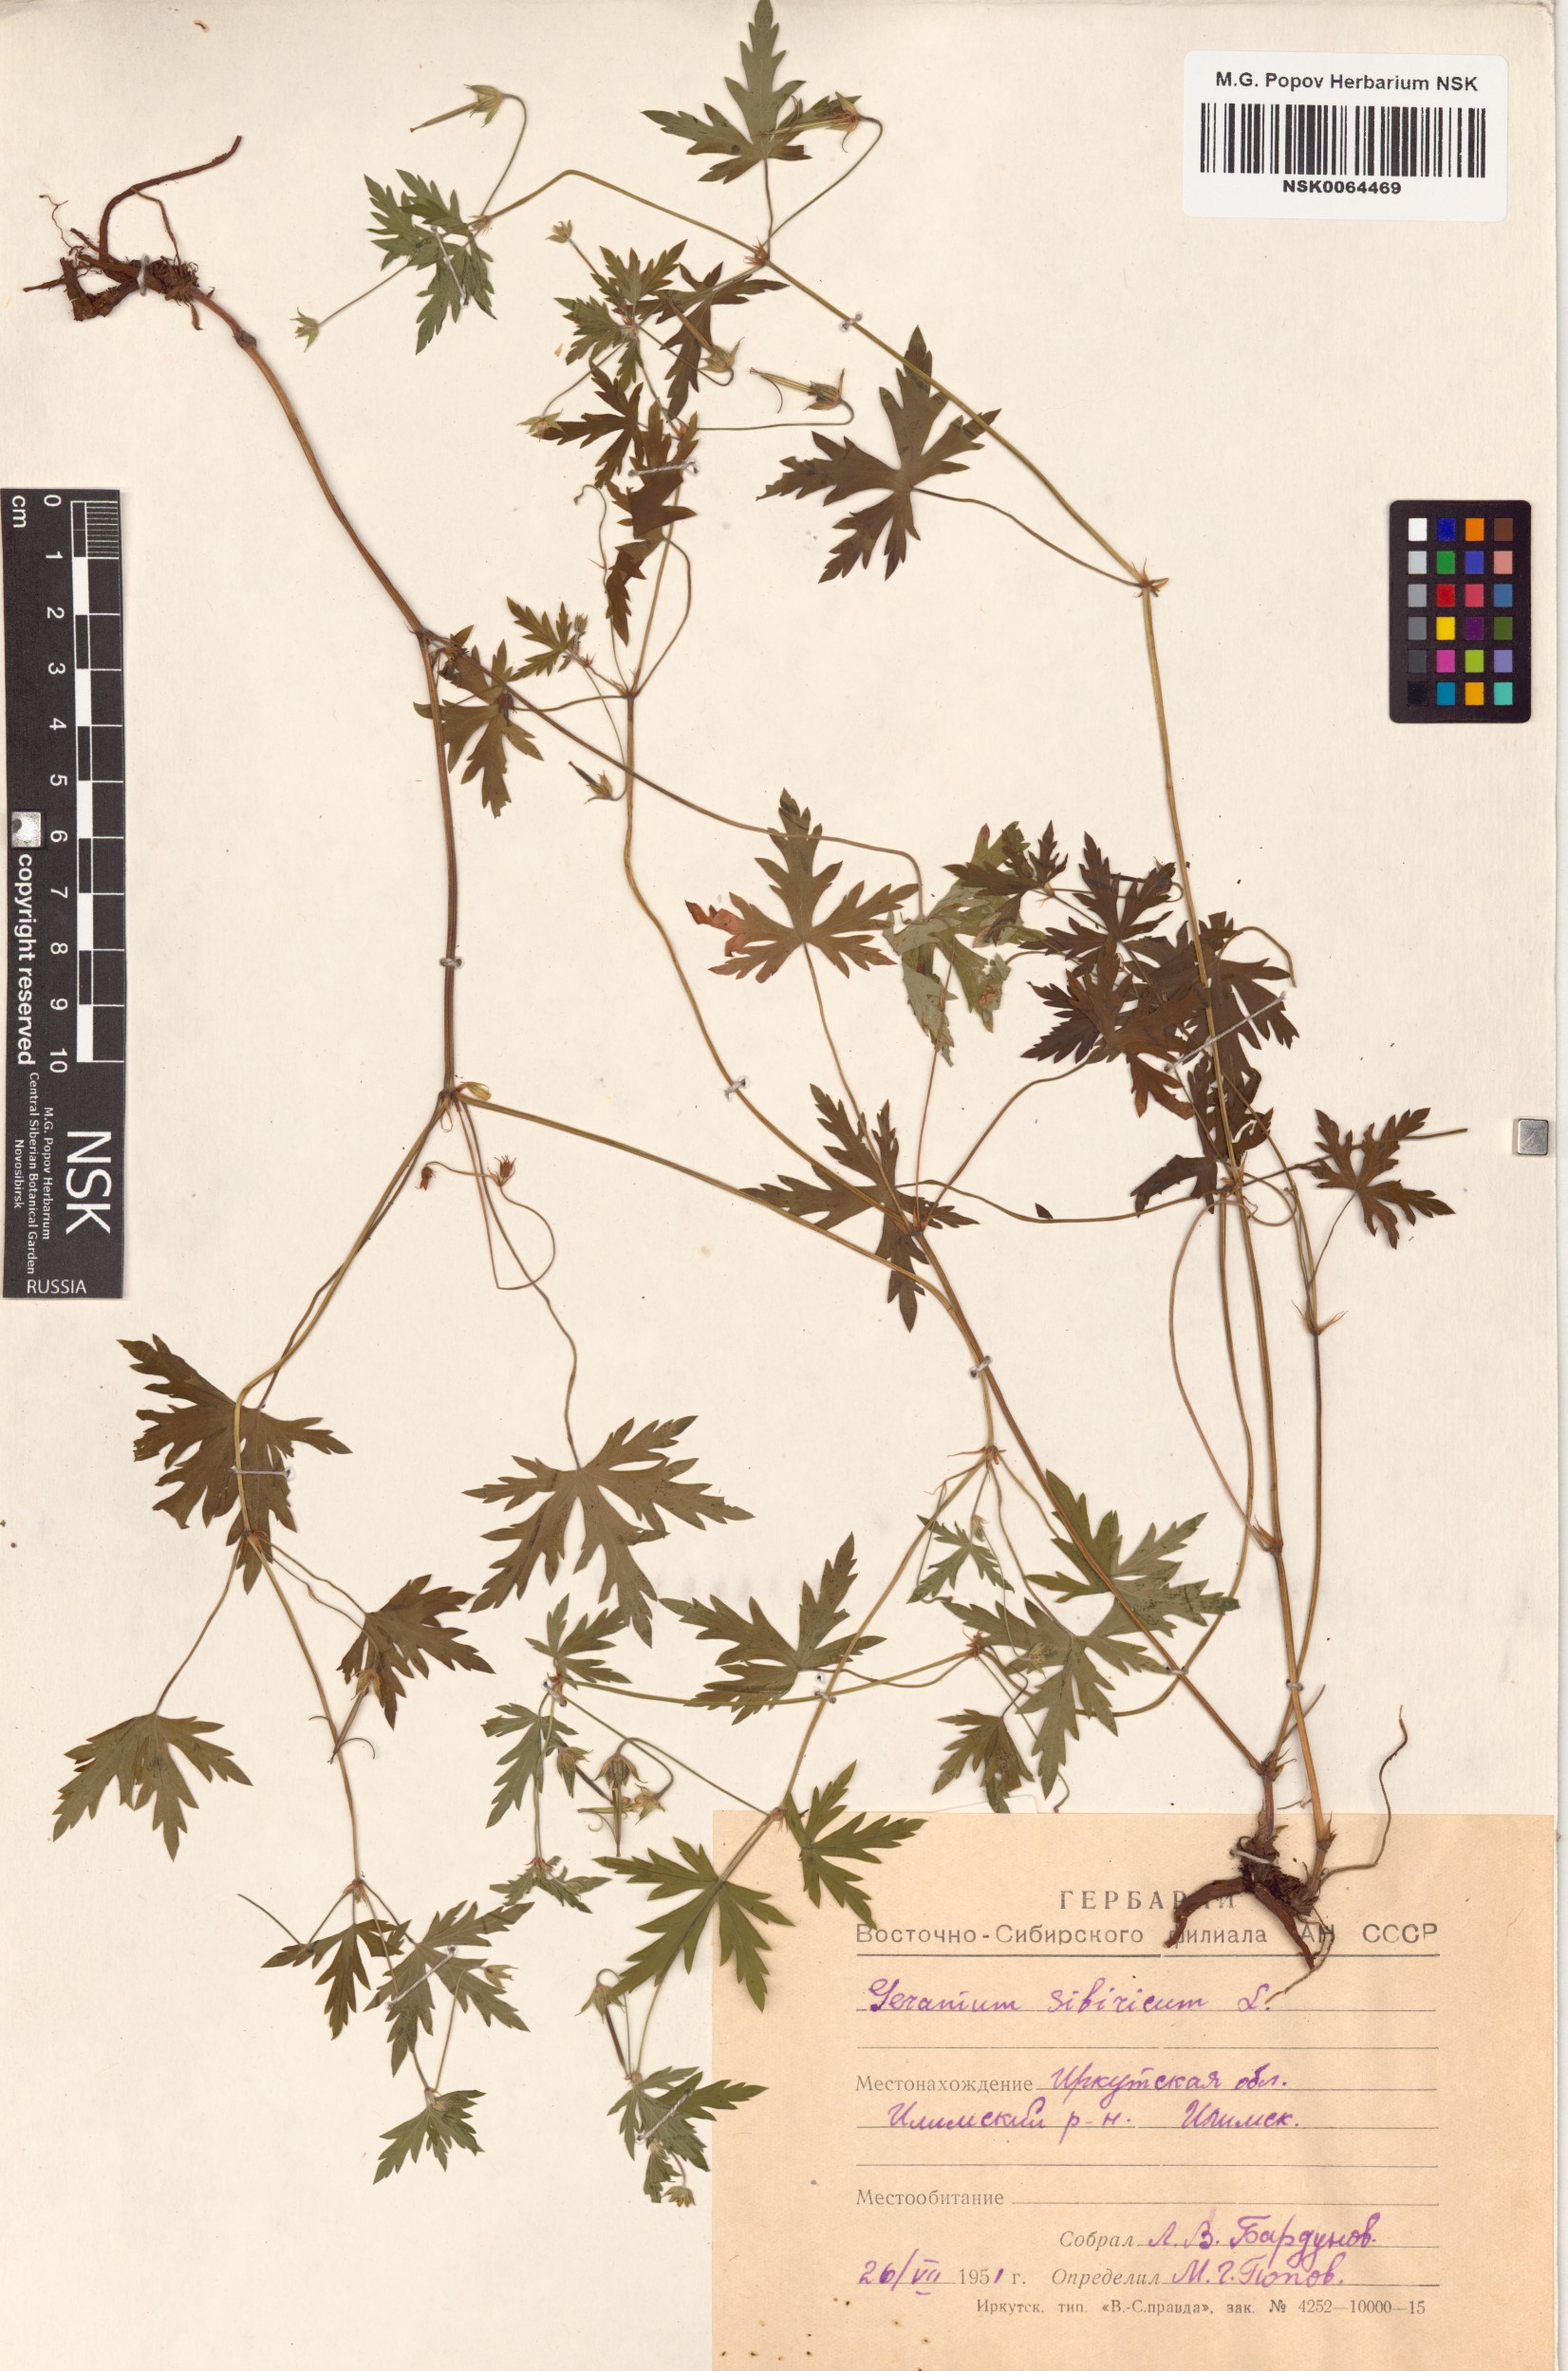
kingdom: Plantae
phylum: Tracheophyta
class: Magnoliopsida
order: Geraniales
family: Geraniaceae
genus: Geranium
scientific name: Geranium sibiricum
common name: Siberian crane's-bill
